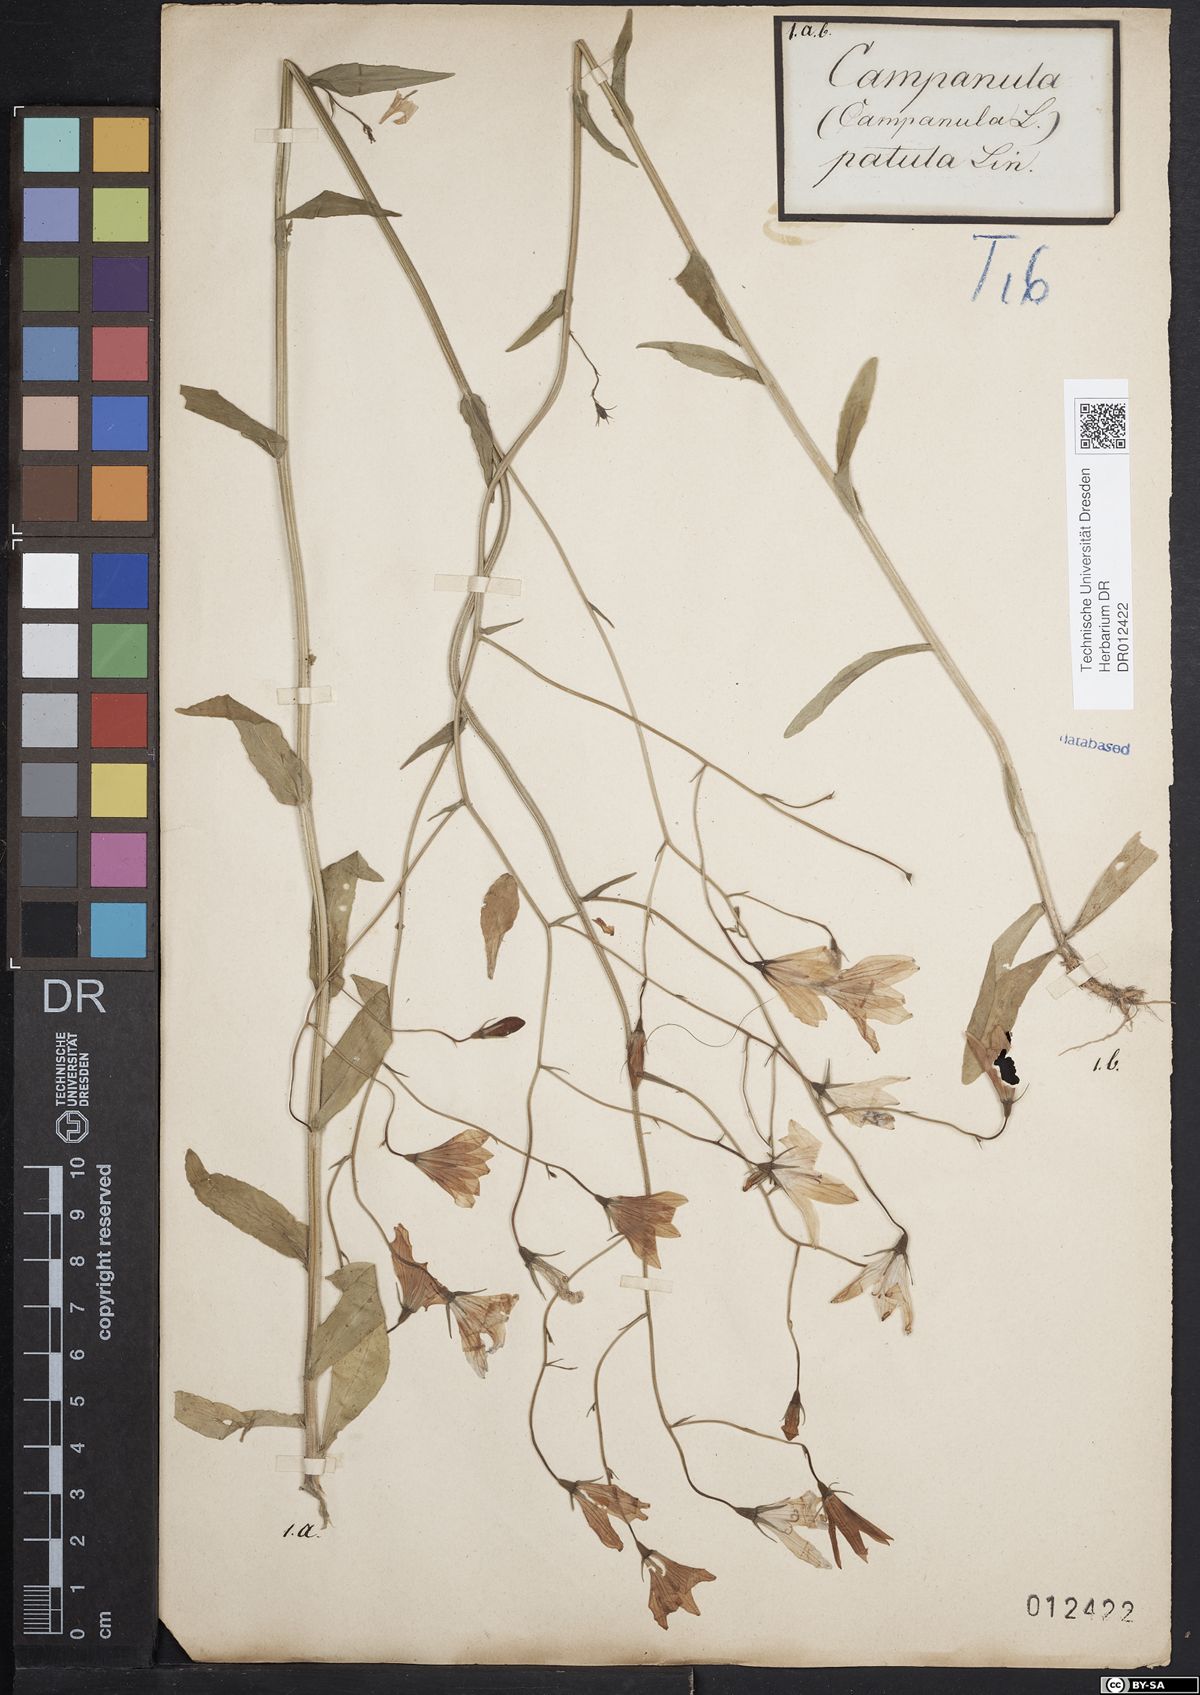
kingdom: Plantae
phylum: Tracheophyta
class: Magnoliopsida
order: Asterales
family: Campanulaceae
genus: Campanula
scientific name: Campanula patula
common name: Spreading bellflower
